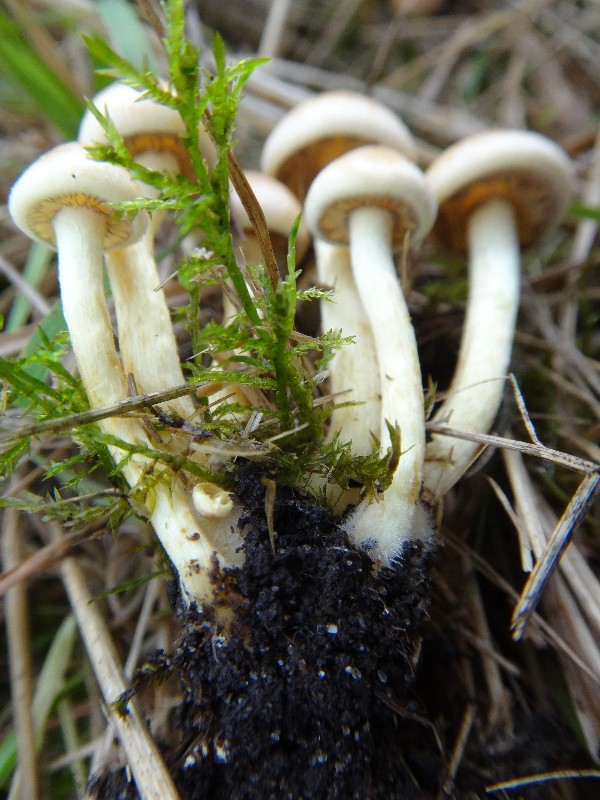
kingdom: Fungi
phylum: Basidiomycota
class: Agaricomycetes
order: Agaricales
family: Strophariaceae
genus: Hypholoma
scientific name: Hypholoma fasciculare
